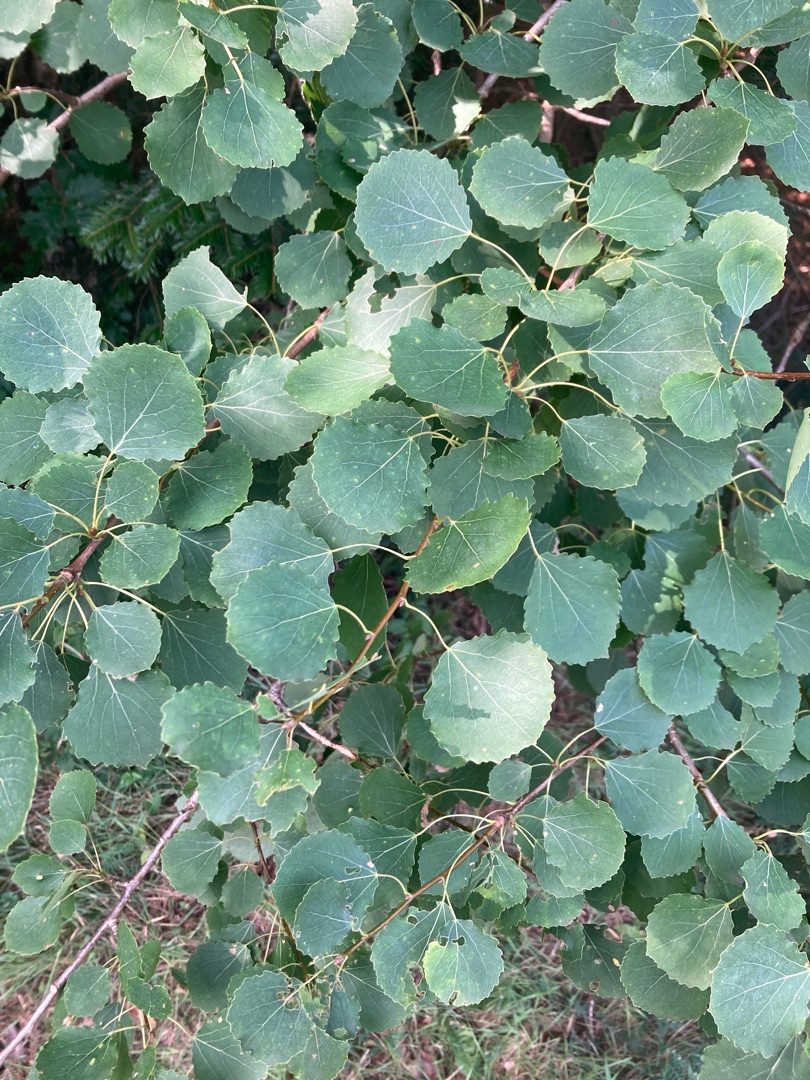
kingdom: Plantae
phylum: Tracheophyta
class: Magnoliopsida
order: Malpighiales
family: Salicaceae
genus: Populus
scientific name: Populus tremula
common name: Bævreasp
